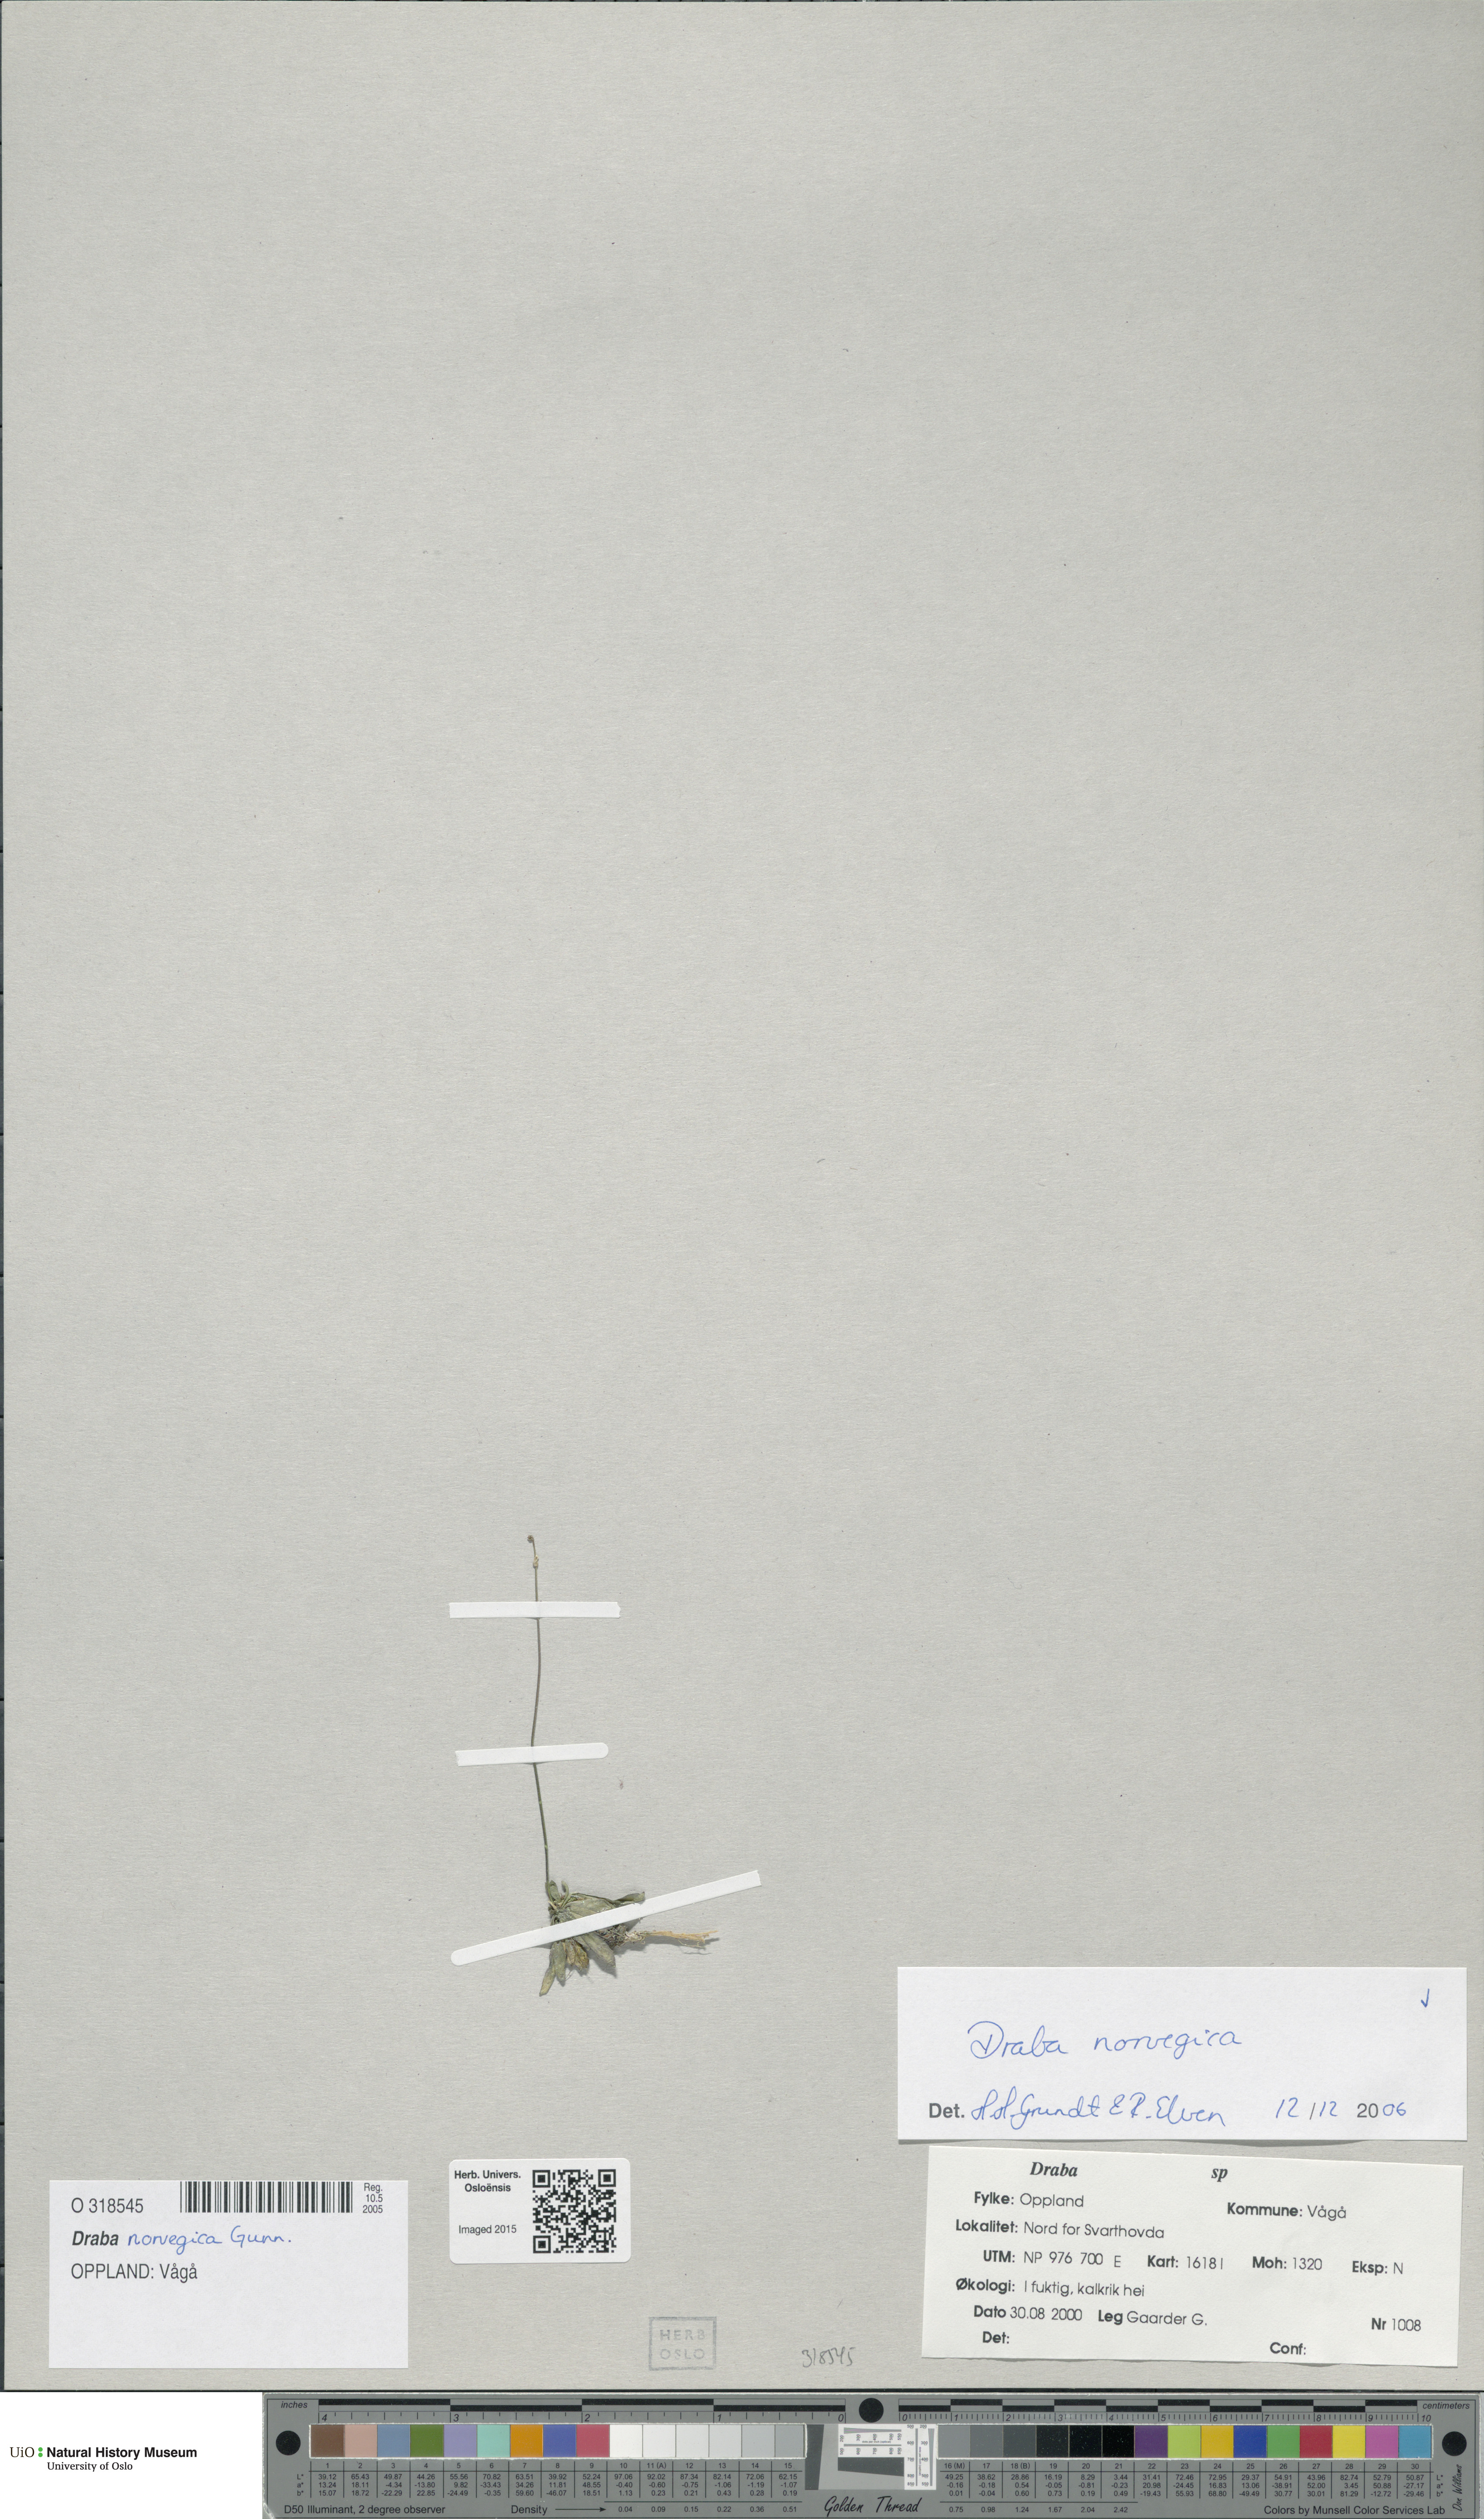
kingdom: Plantae
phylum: Tracheophyta
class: Magnoliopsida
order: Brassicales
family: Brassicaceae
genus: Draba
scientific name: Draba norvegica
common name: Rock whitlowgrass
